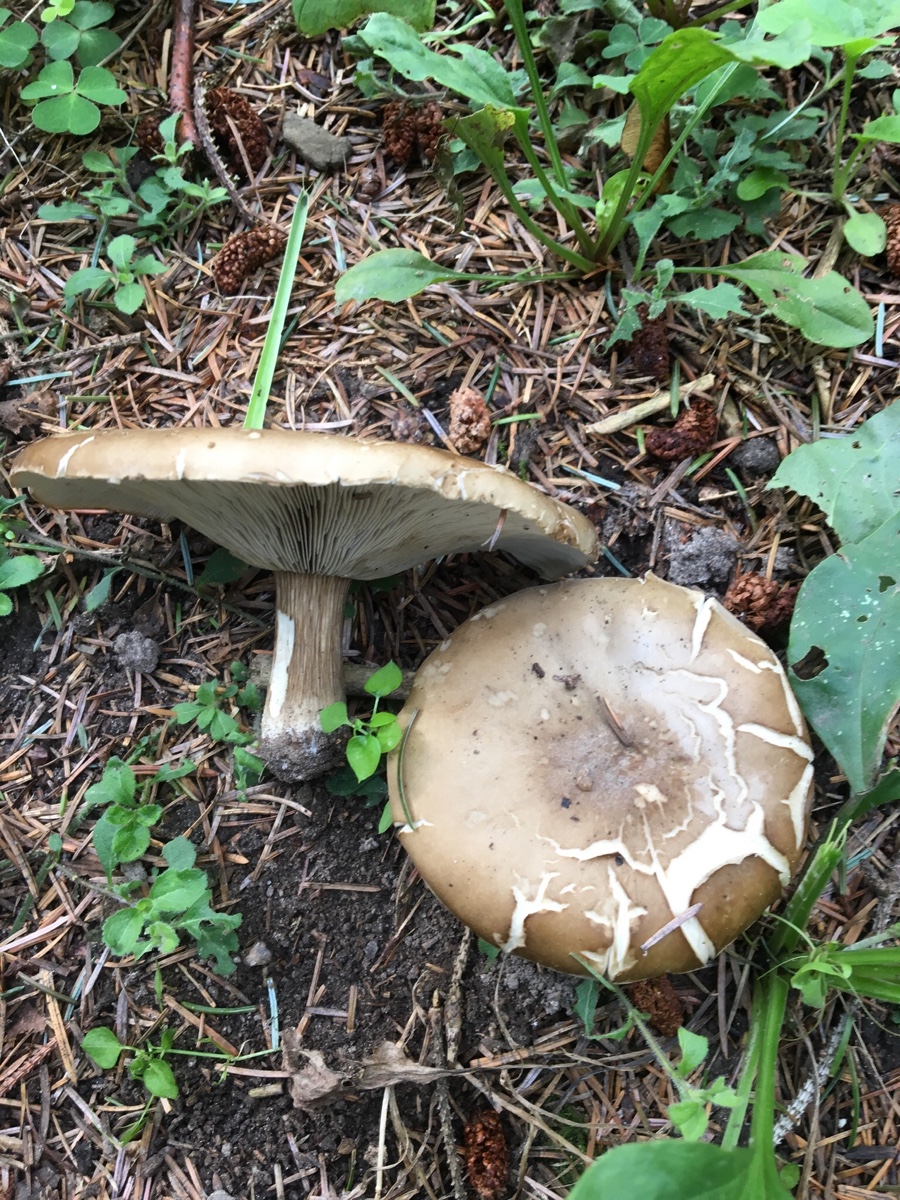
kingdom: Fungi
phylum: Basidiomycota
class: Agaricomycetes
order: Agaricales
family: Tricholomataceae
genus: Melanoleuca
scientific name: Melanoleuca
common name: munkehat
